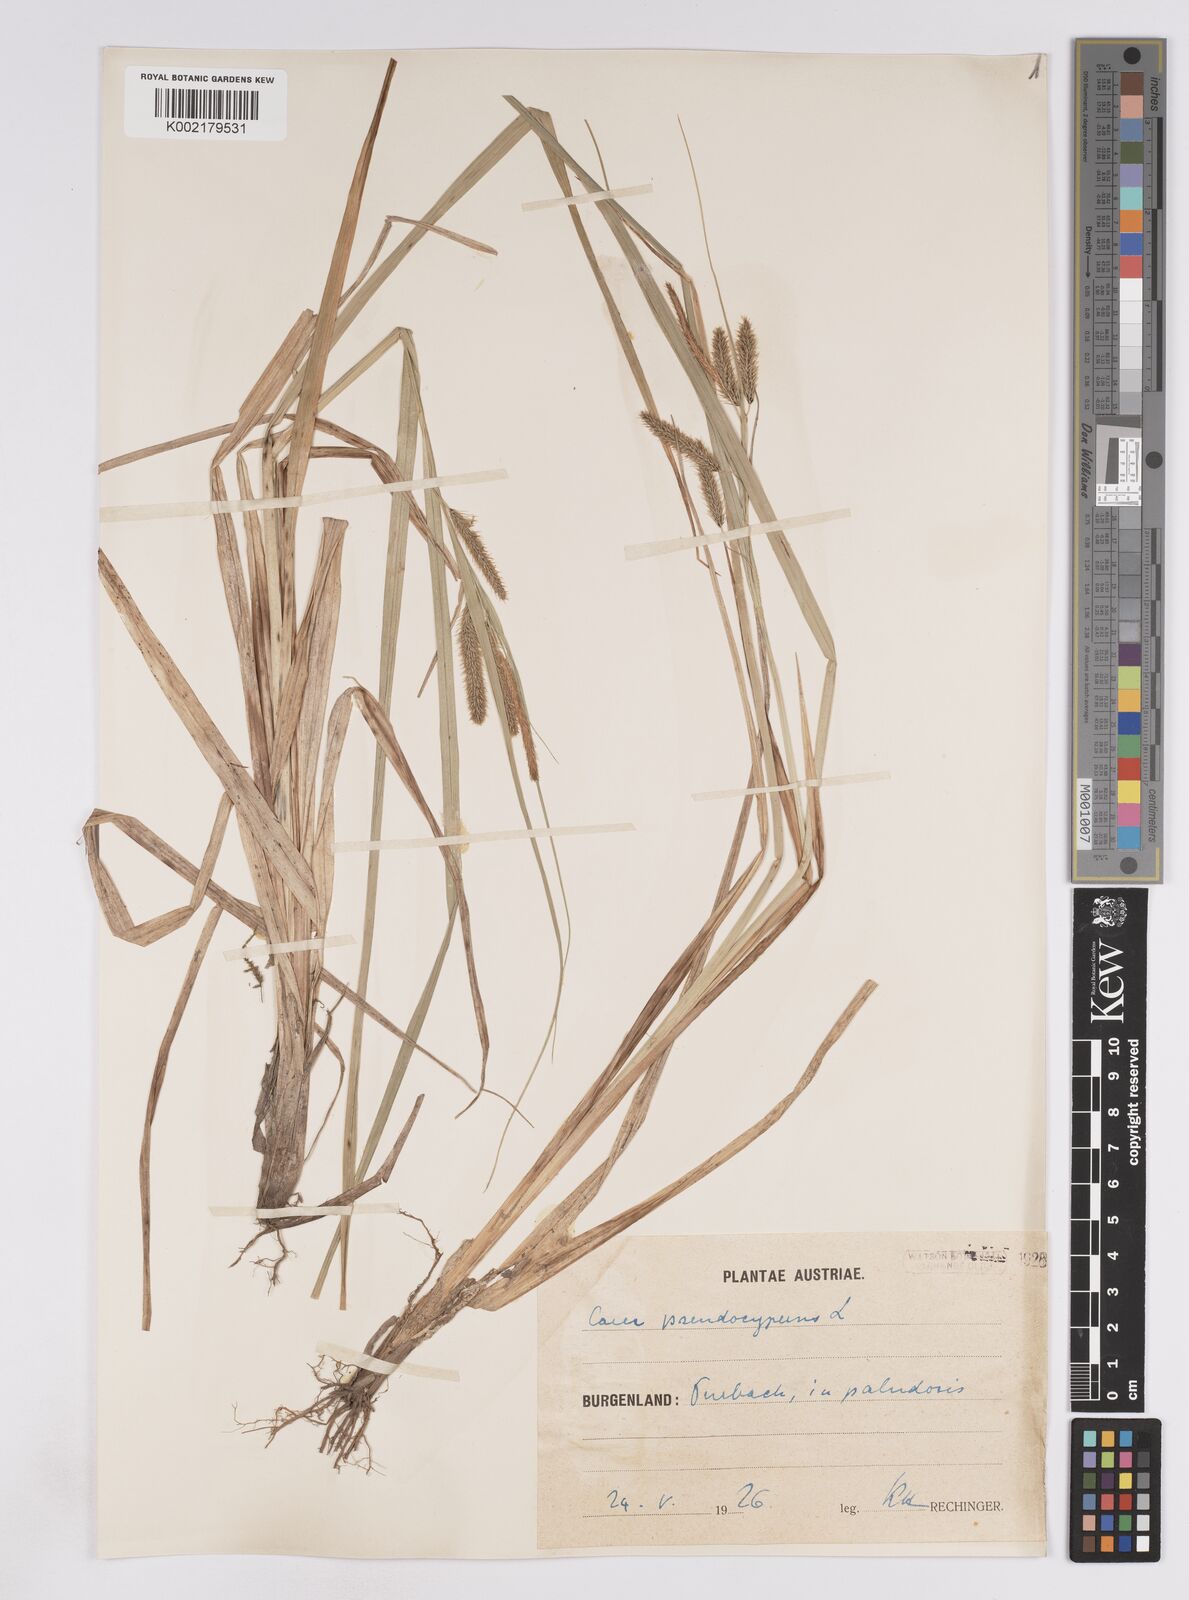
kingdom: Plantae
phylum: Tracheophyta
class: Liliopsida
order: Poales
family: Cyperaceae
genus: Carex
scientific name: Carex pseudocyperus
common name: Cyperus sedge
